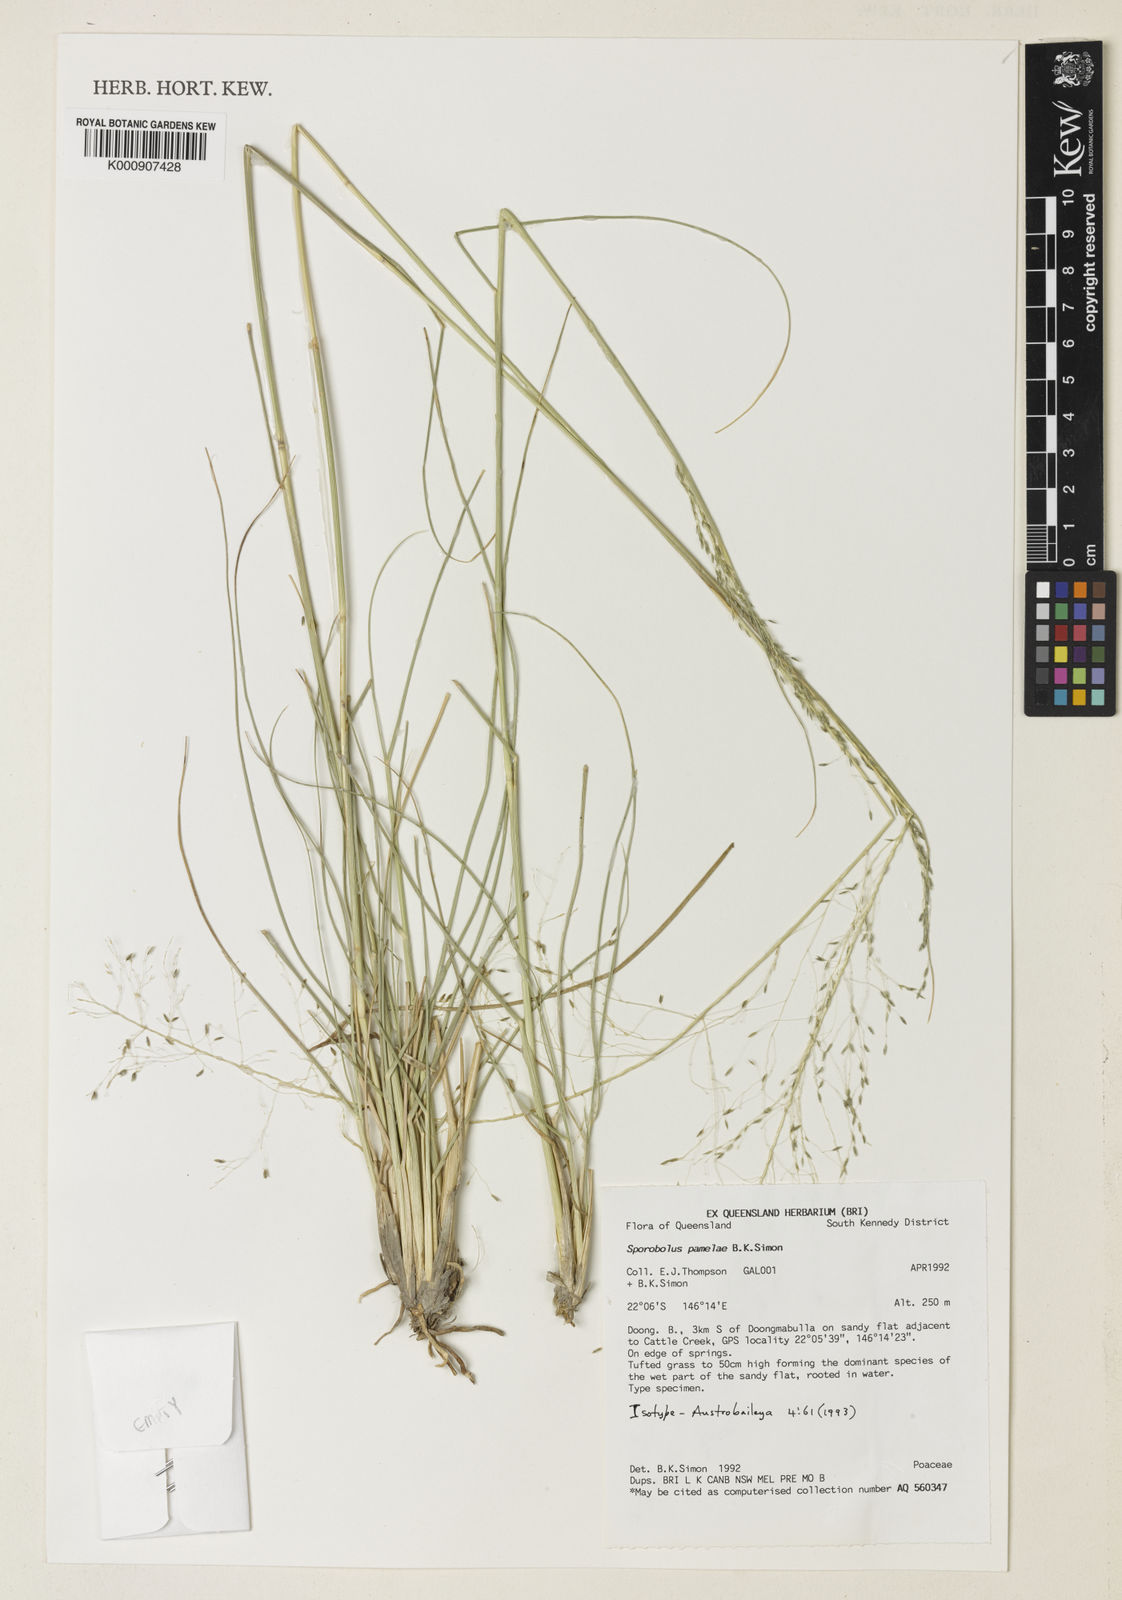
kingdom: Plantae
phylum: Tracheophyta
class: Liliopsida
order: Poales
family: Poaceae
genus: Sporobolus
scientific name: Sporobolus pamelae
